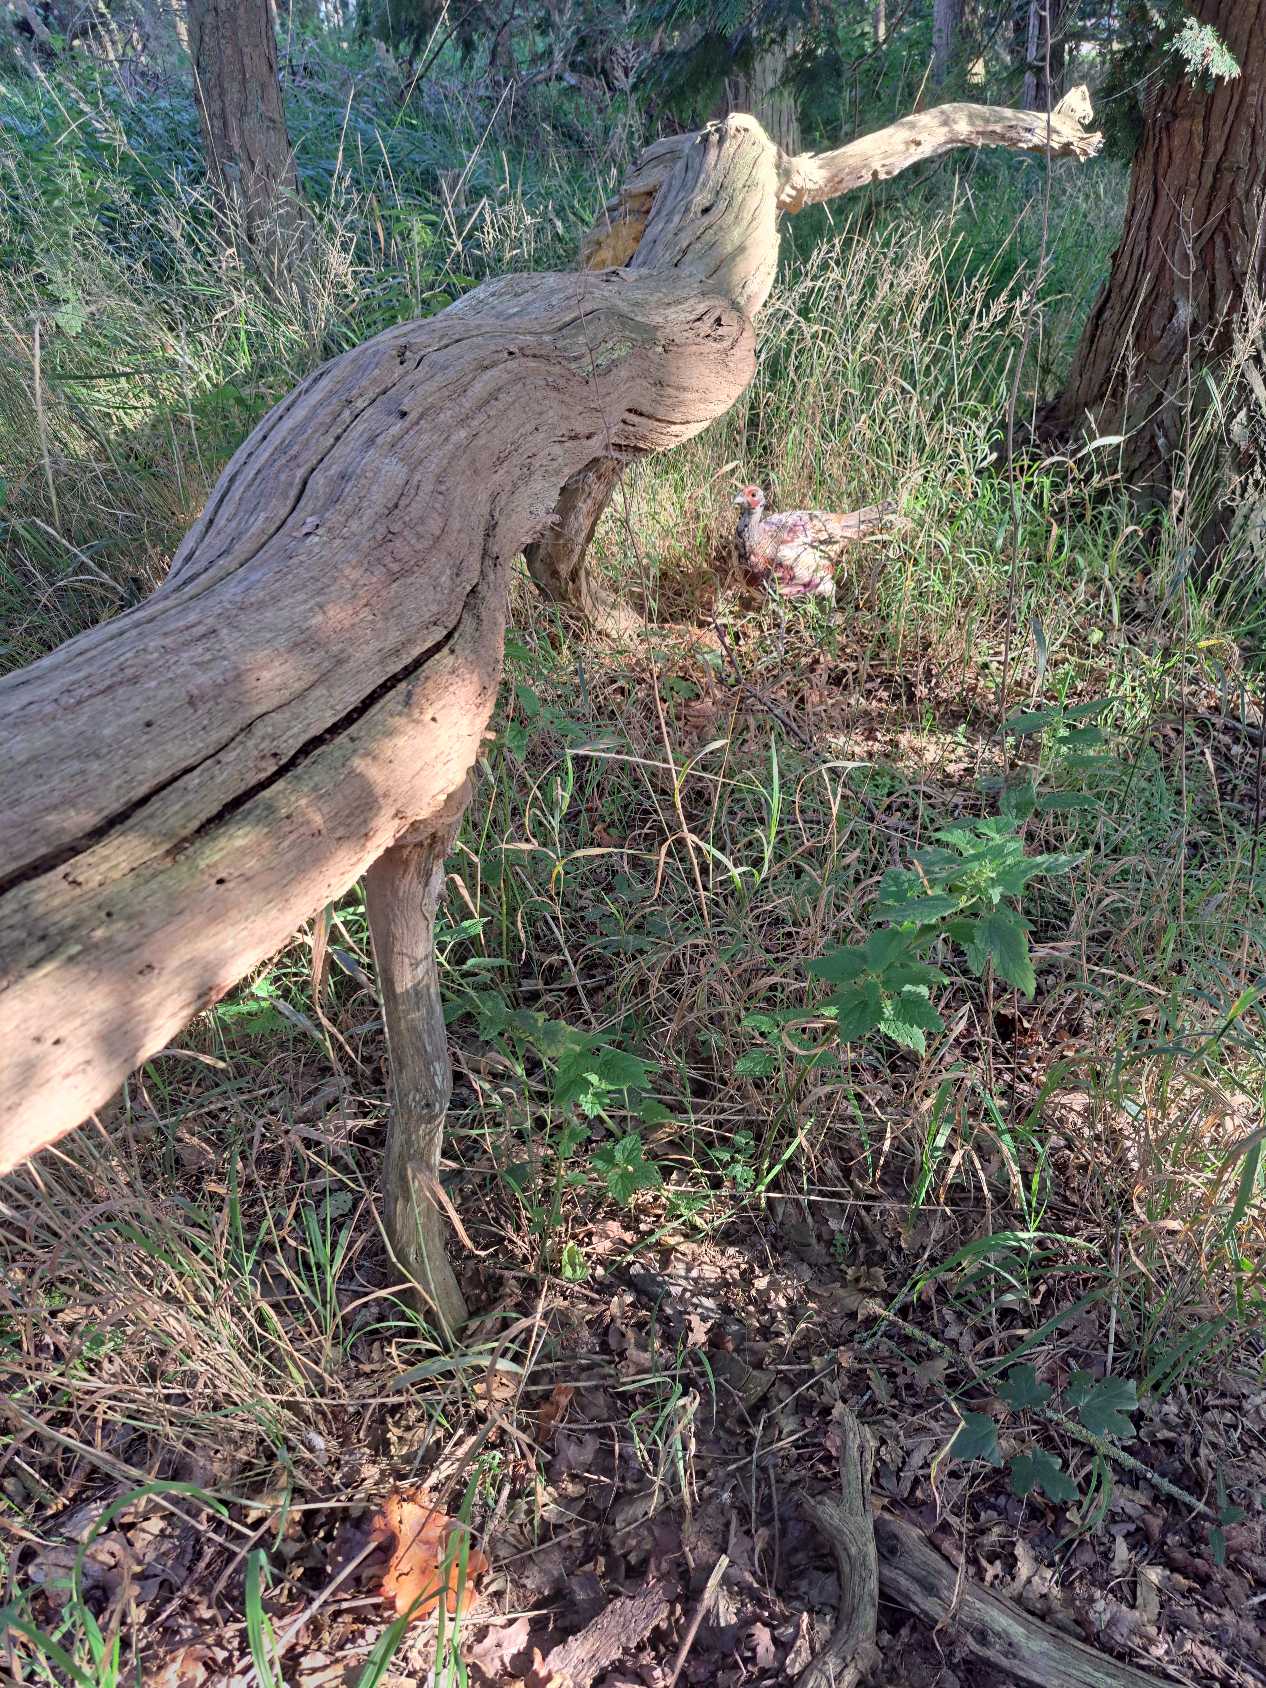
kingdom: Animalia
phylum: Chordata
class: Aves
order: Galliformes
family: Phasianidae
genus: Phasianus
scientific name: Phasianus colchicus
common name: Fasan
